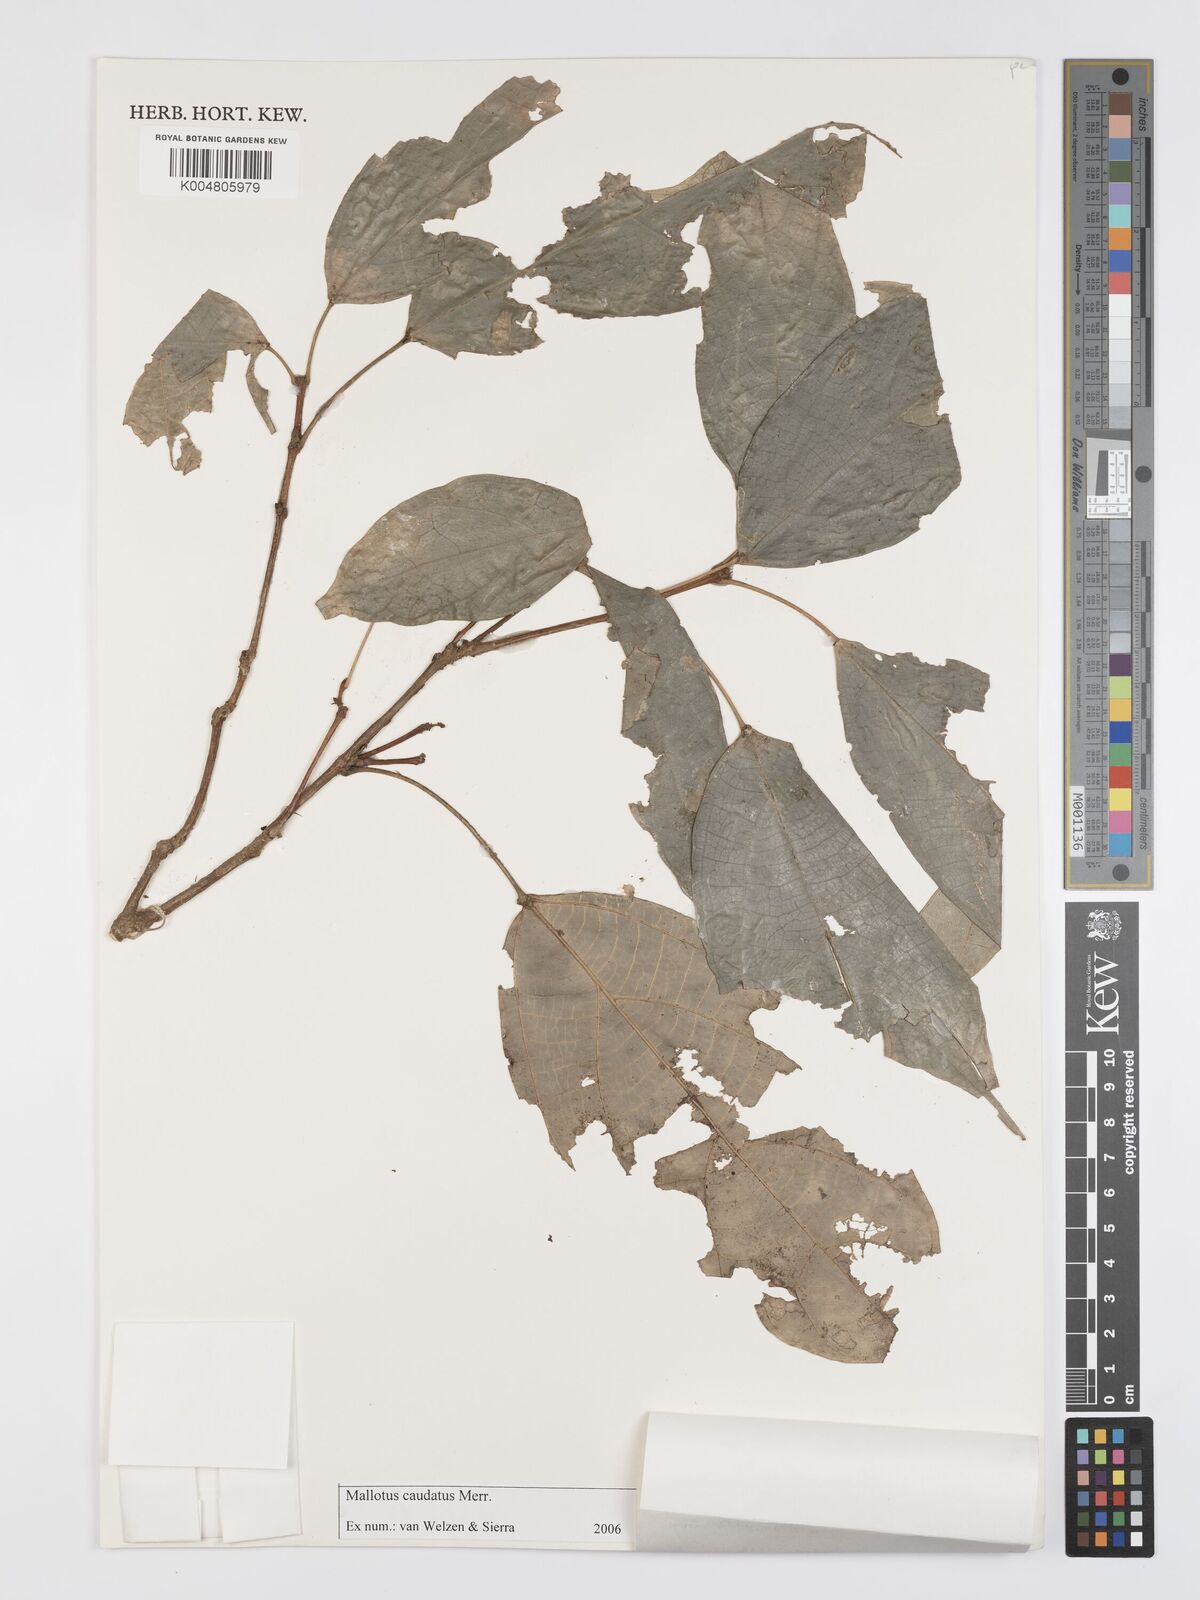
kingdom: Plantae
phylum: Tracheophyta
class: Magnoliopsida
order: Malpighiales
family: Euphorbiaceae
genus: Mallotus
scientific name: Mallotus caudatus
